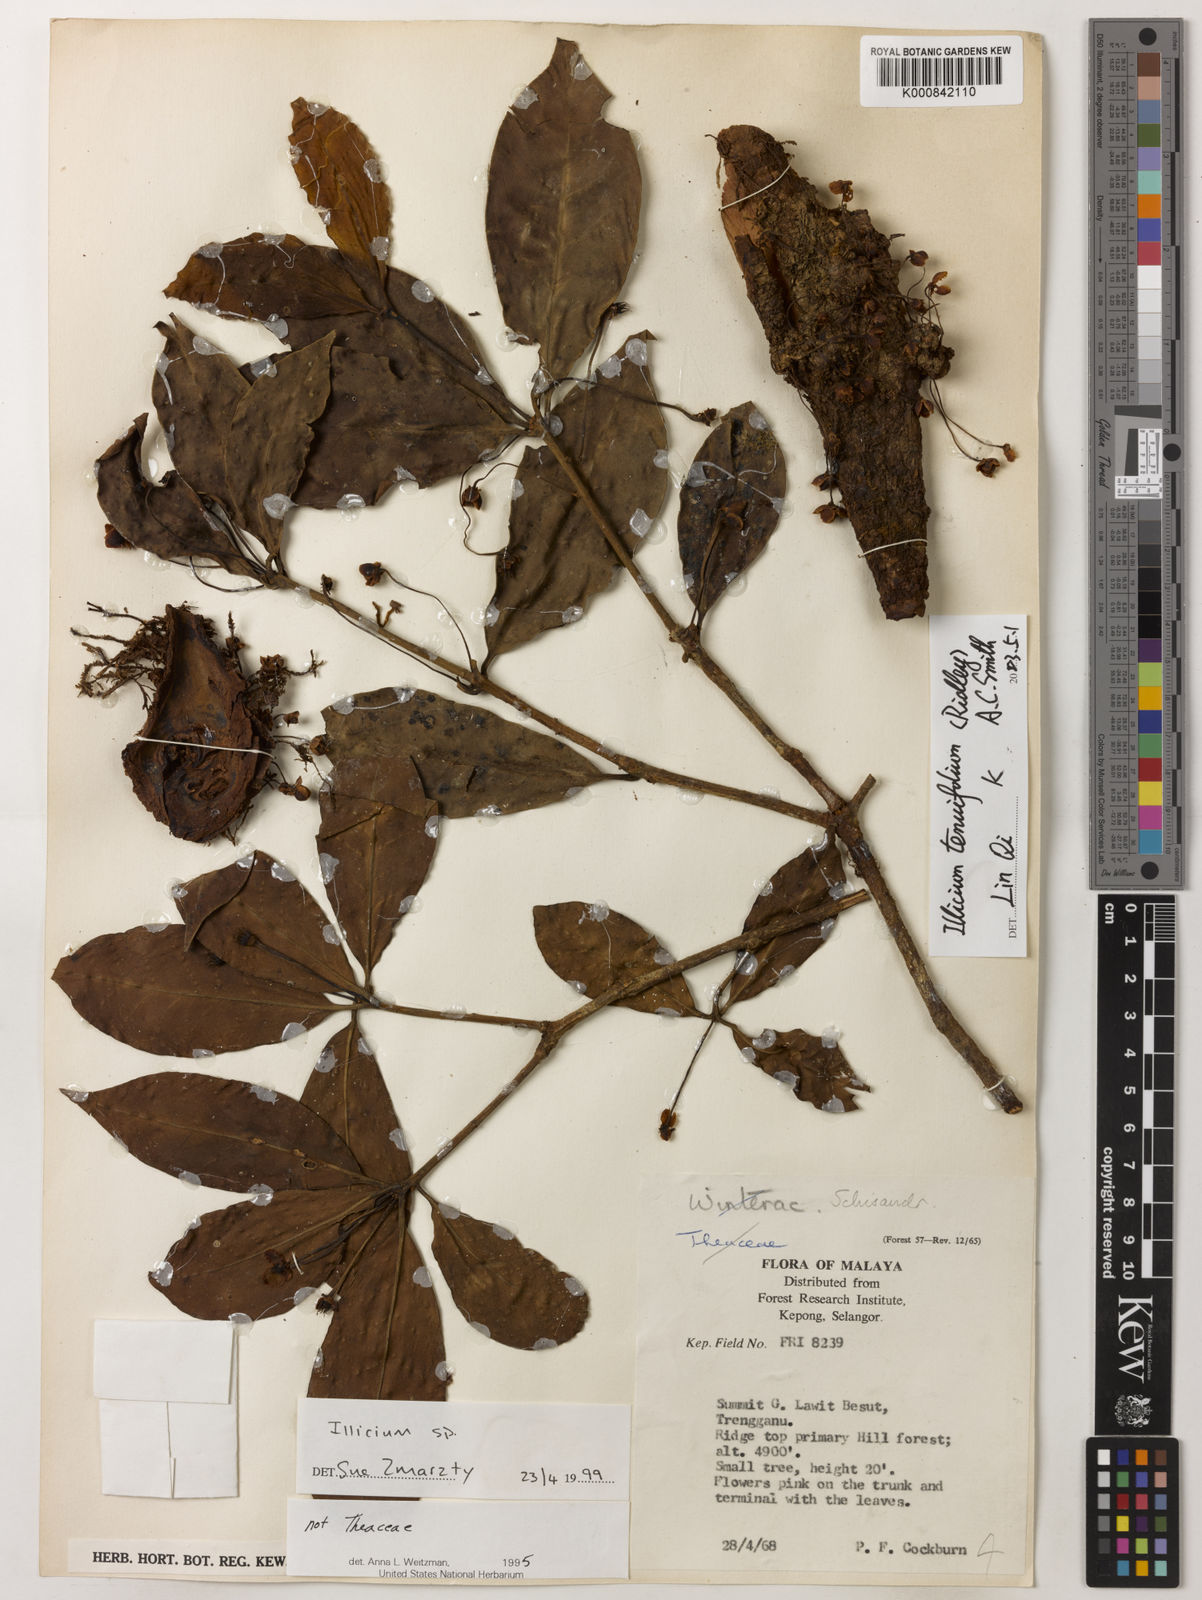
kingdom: Plantae
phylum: Tracheophyta
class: Magnoliopsida
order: Austrobaileyales
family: Schisandraceae
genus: Illicium
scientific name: Illicium tenuifolium
